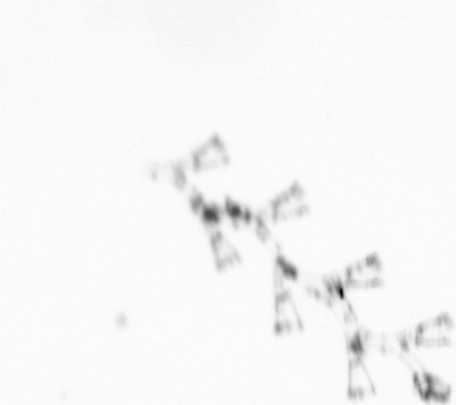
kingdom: Animalia
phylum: Cnidaria
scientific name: Cnidaria
